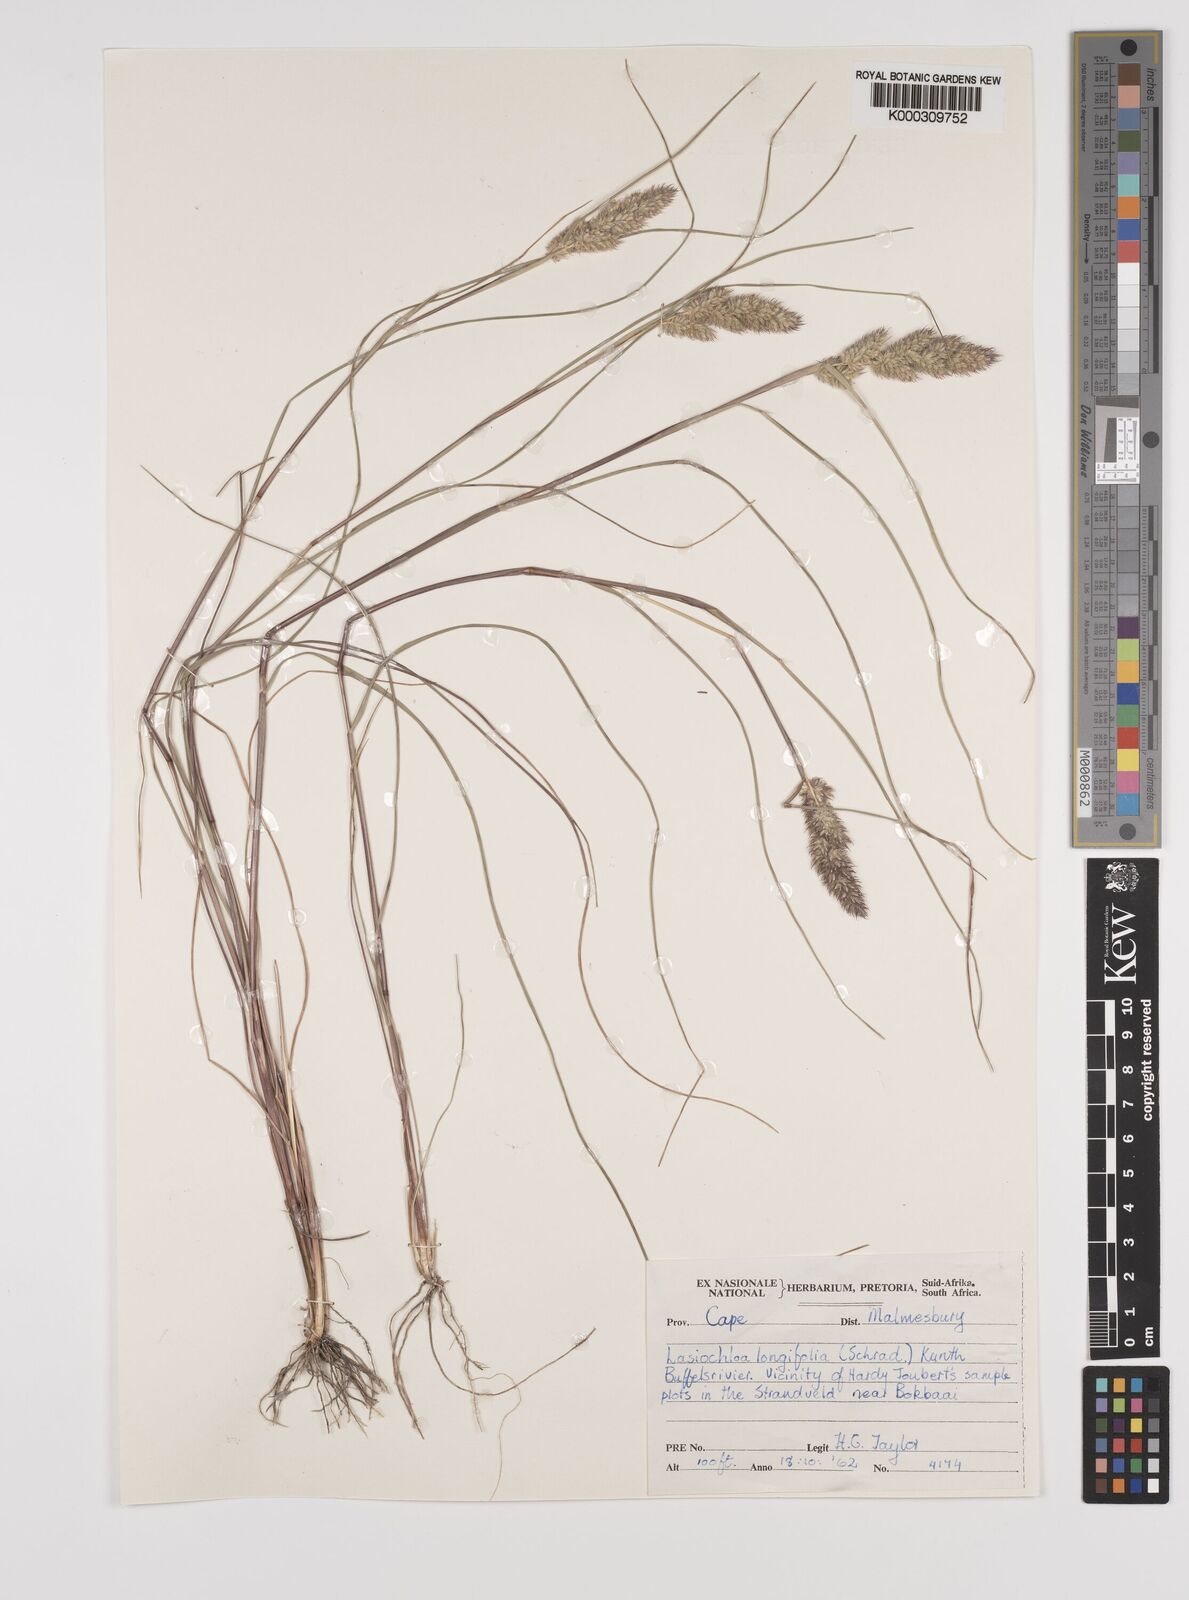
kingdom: Plantae
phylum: Tracheophyta
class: Liliopsida
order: Poales
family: Poaceae
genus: Tribolium
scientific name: Tribolium hispidum
